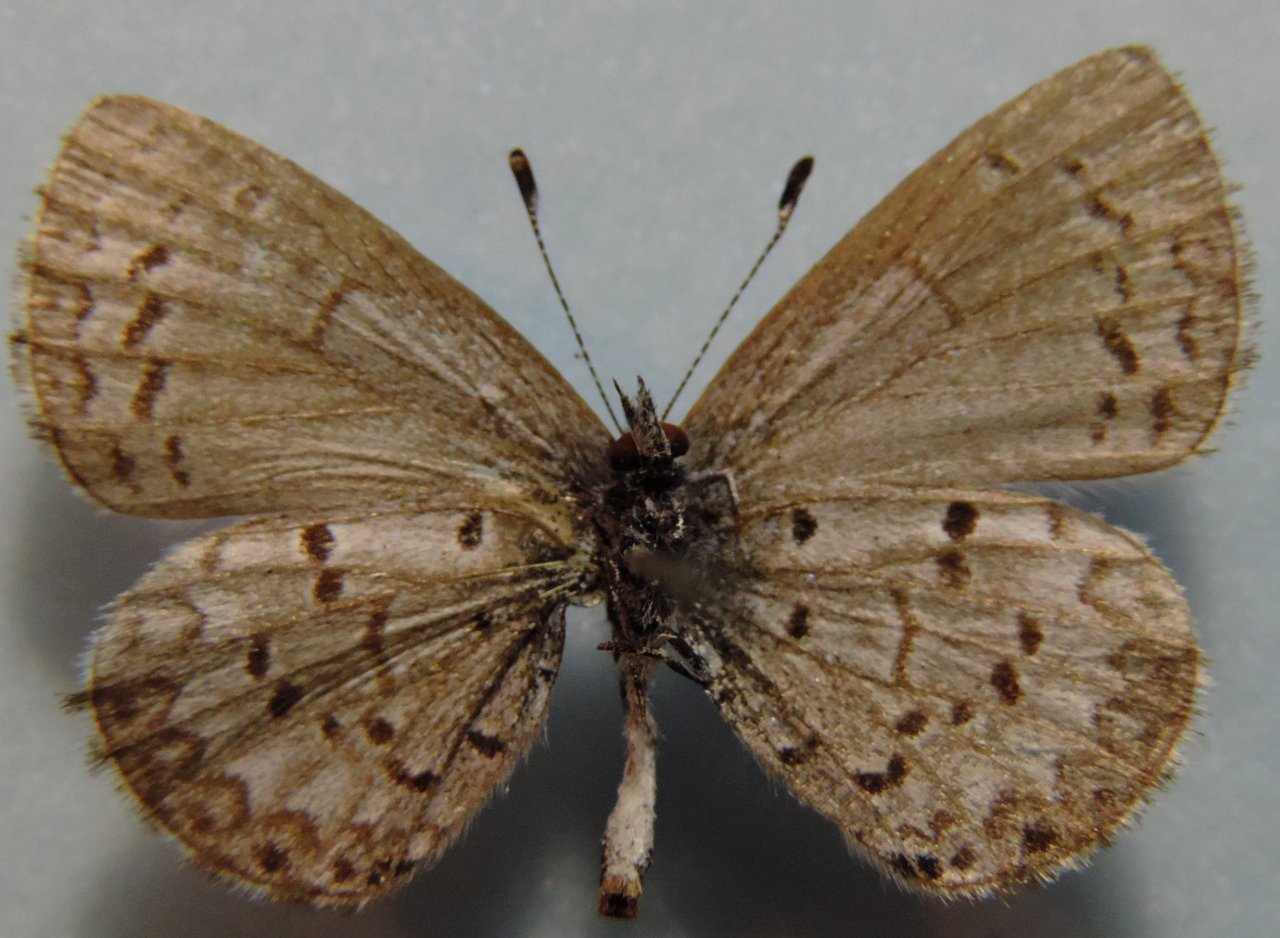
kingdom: Animalia
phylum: Arthropoda
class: Insecta
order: Lepidoptera
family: Lycaenidae
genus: Celastrina
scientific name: Celastrina lucia
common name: Northern Spring Azure
